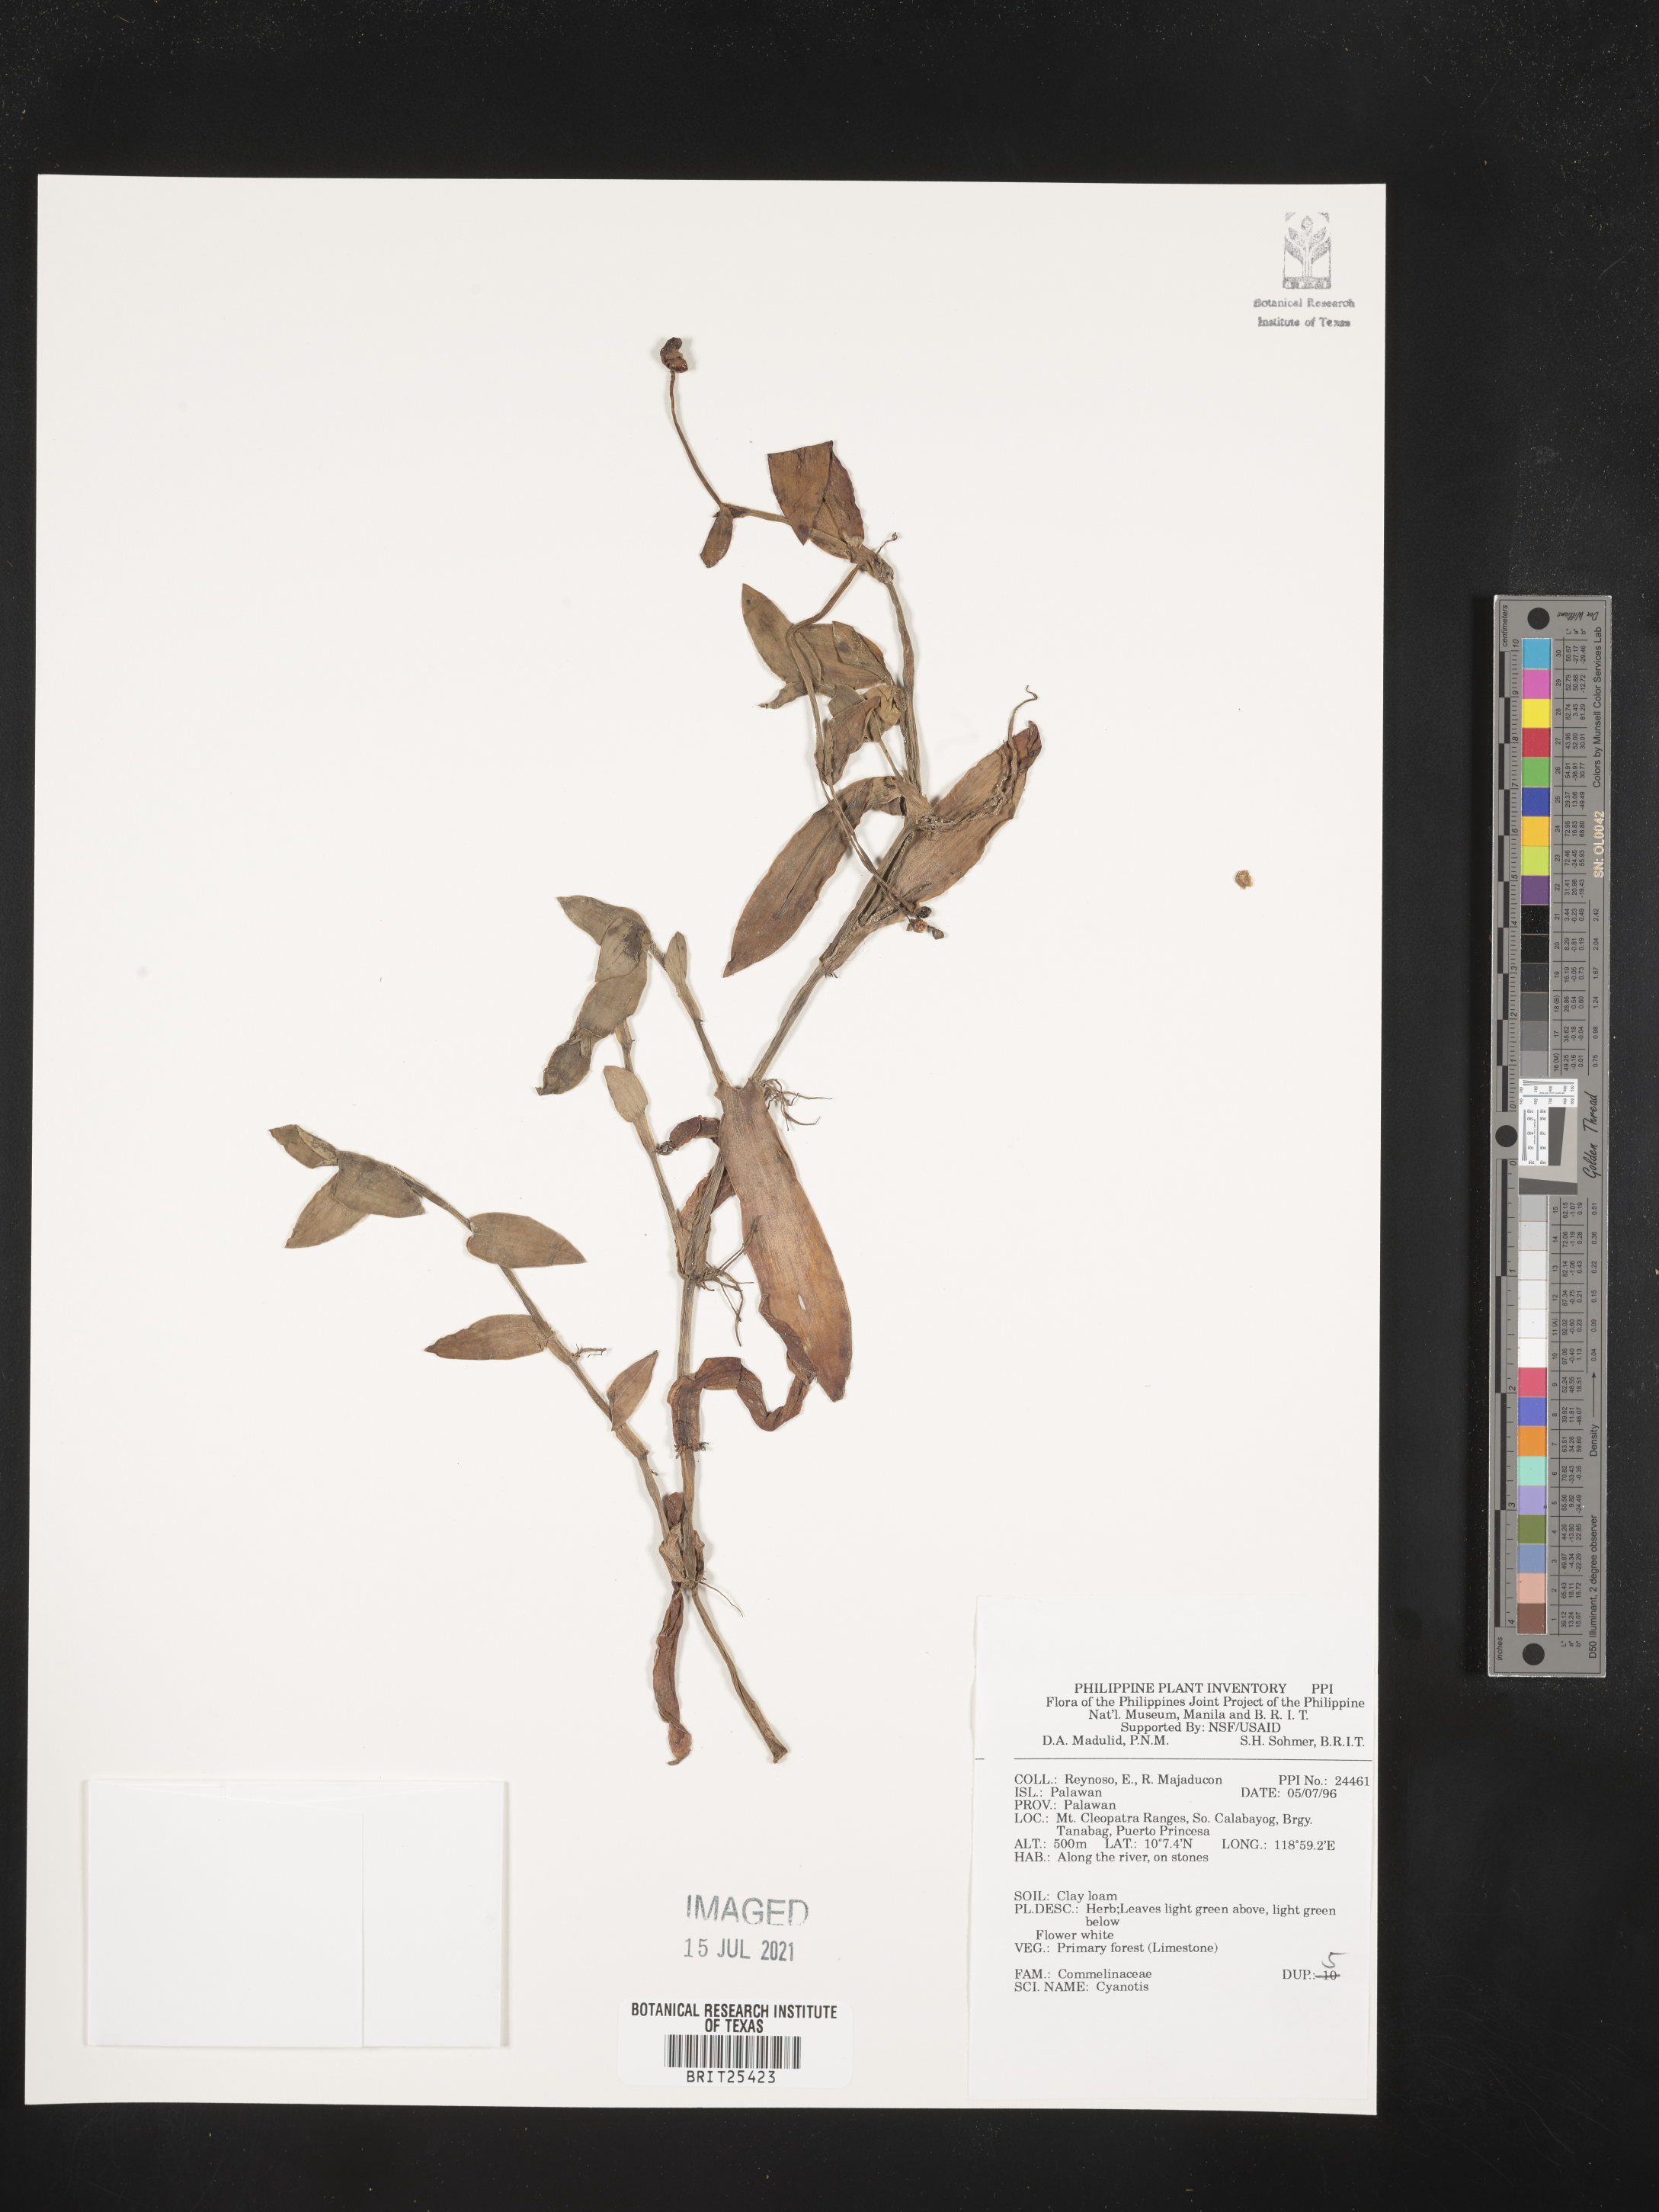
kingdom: Plantae
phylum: Tracheophyta
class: Liliopsida
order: Commelinales
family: Commelinaceae
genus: Cyanotis
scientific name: Cyanotis
